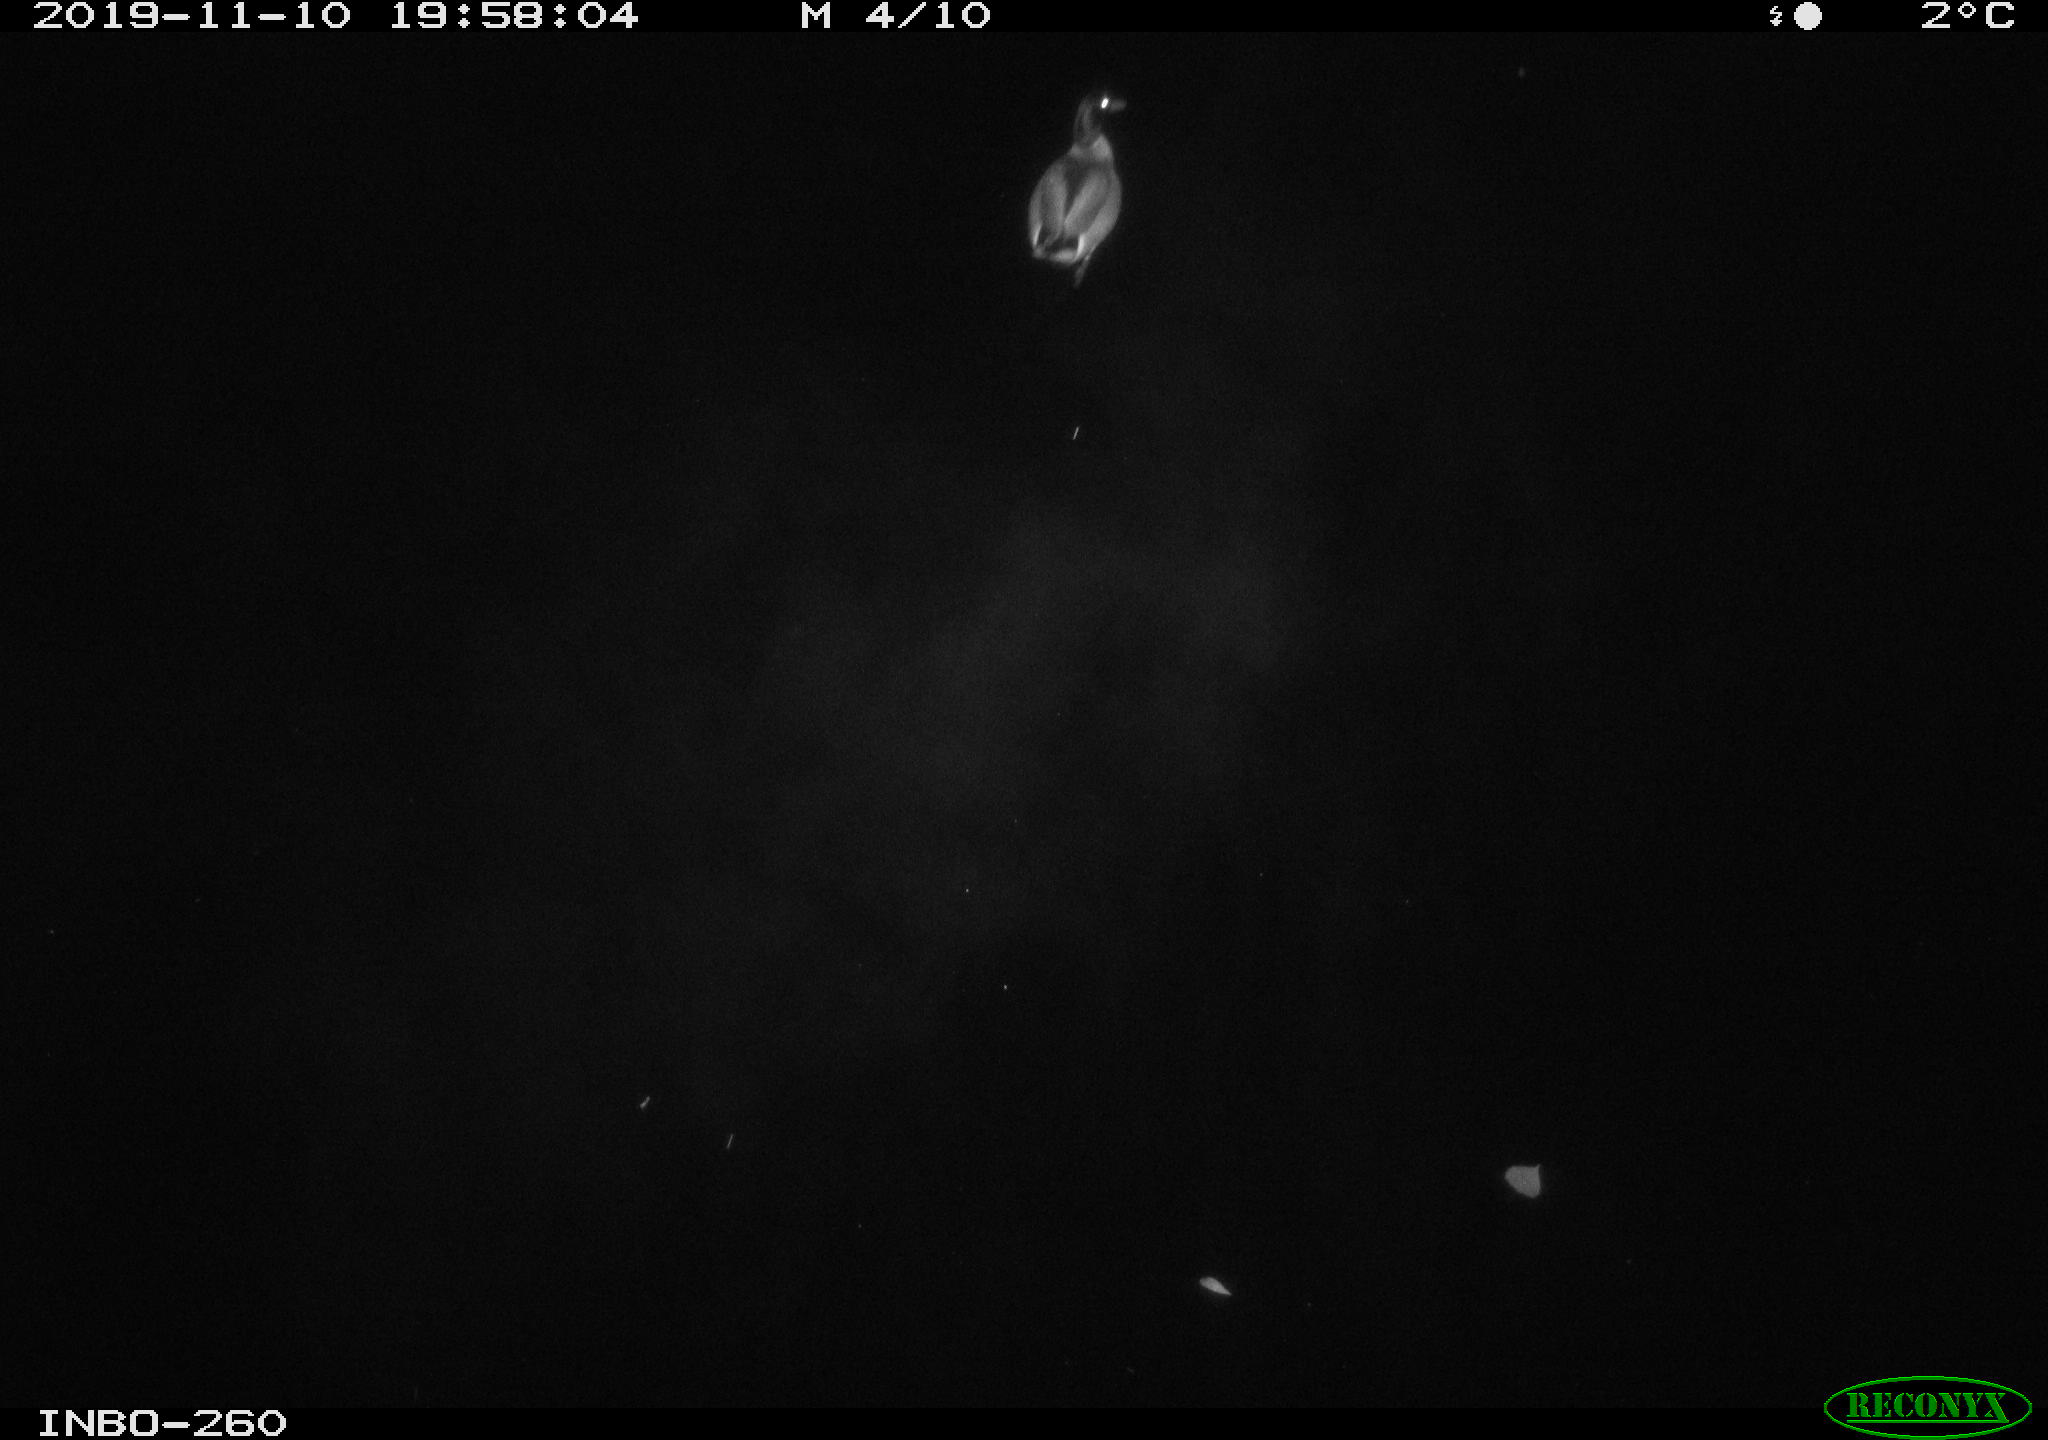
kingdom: Animalia
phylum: Chordata
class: Aves
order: Anseriformes
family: Anatidae
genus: Anas
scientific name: Anas platyrhynchos
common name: Mallard
